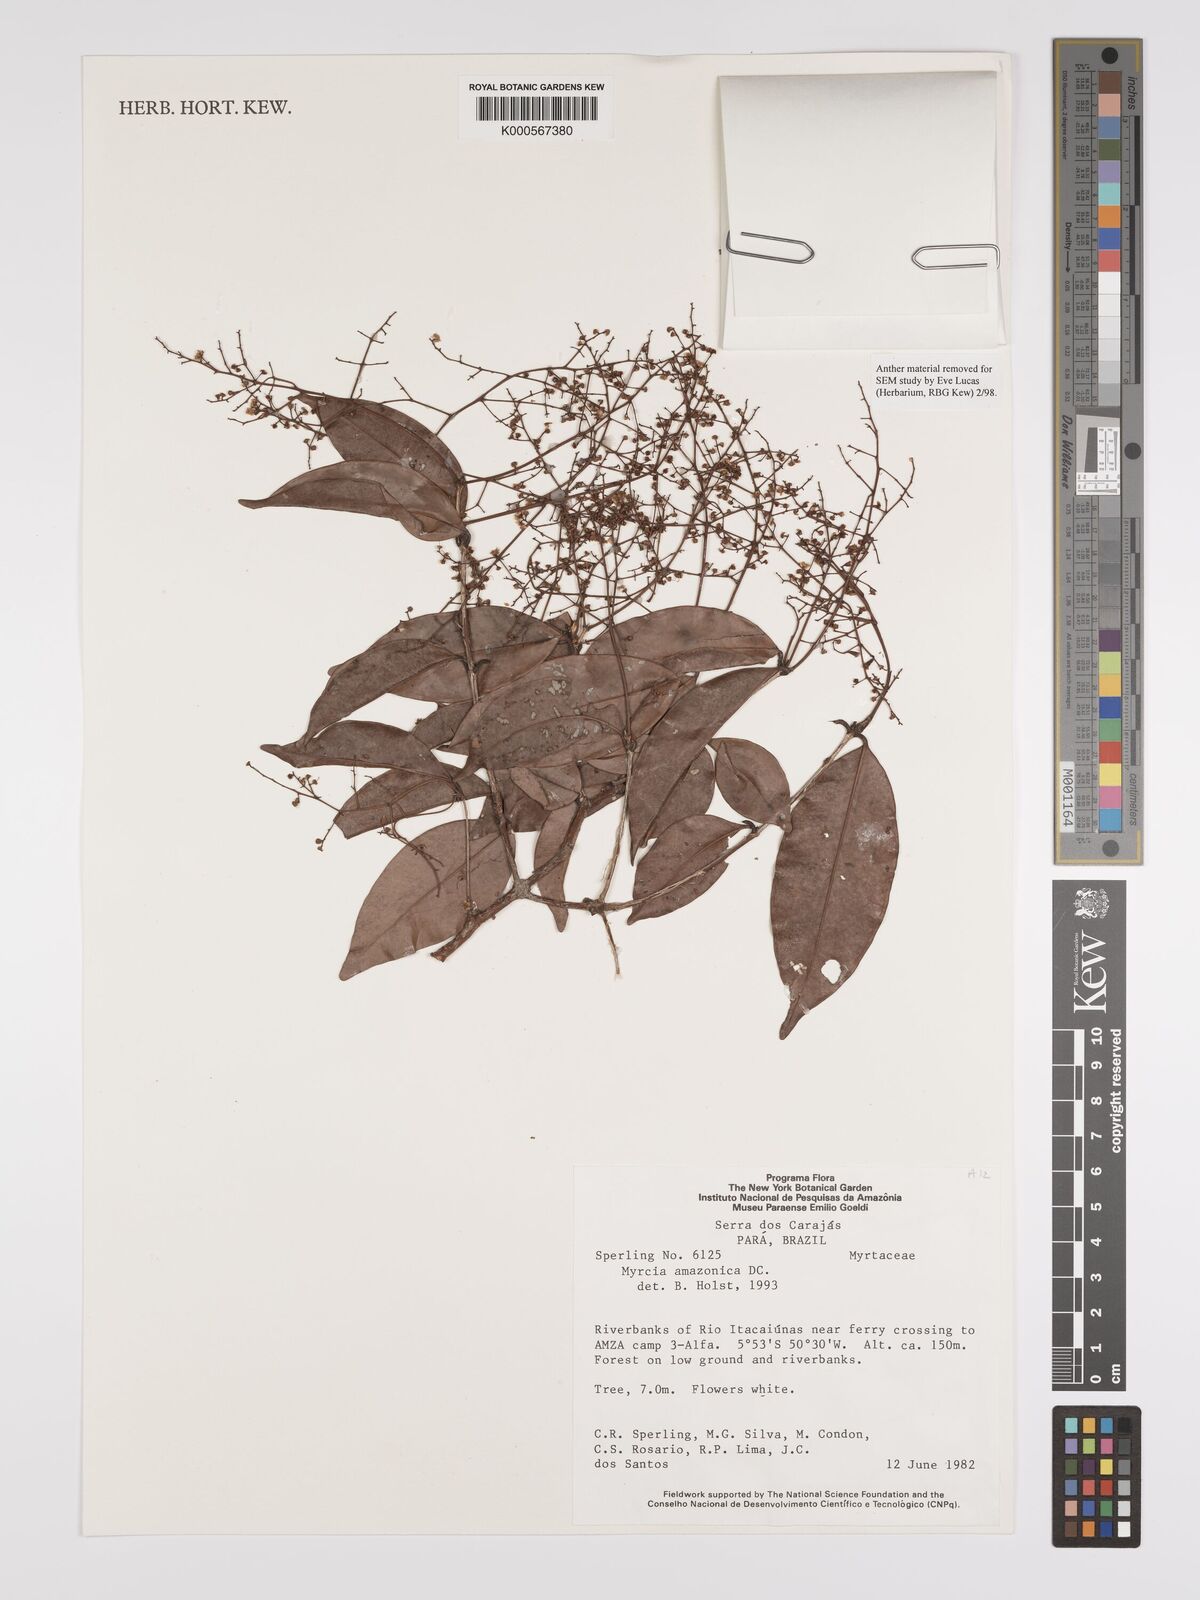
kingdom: Plantae
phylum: Tracheophyta
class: Magnoliopsida
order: Myrtales
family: Myrtaceae
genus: Myrcia
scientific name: Myrcia amazonica
